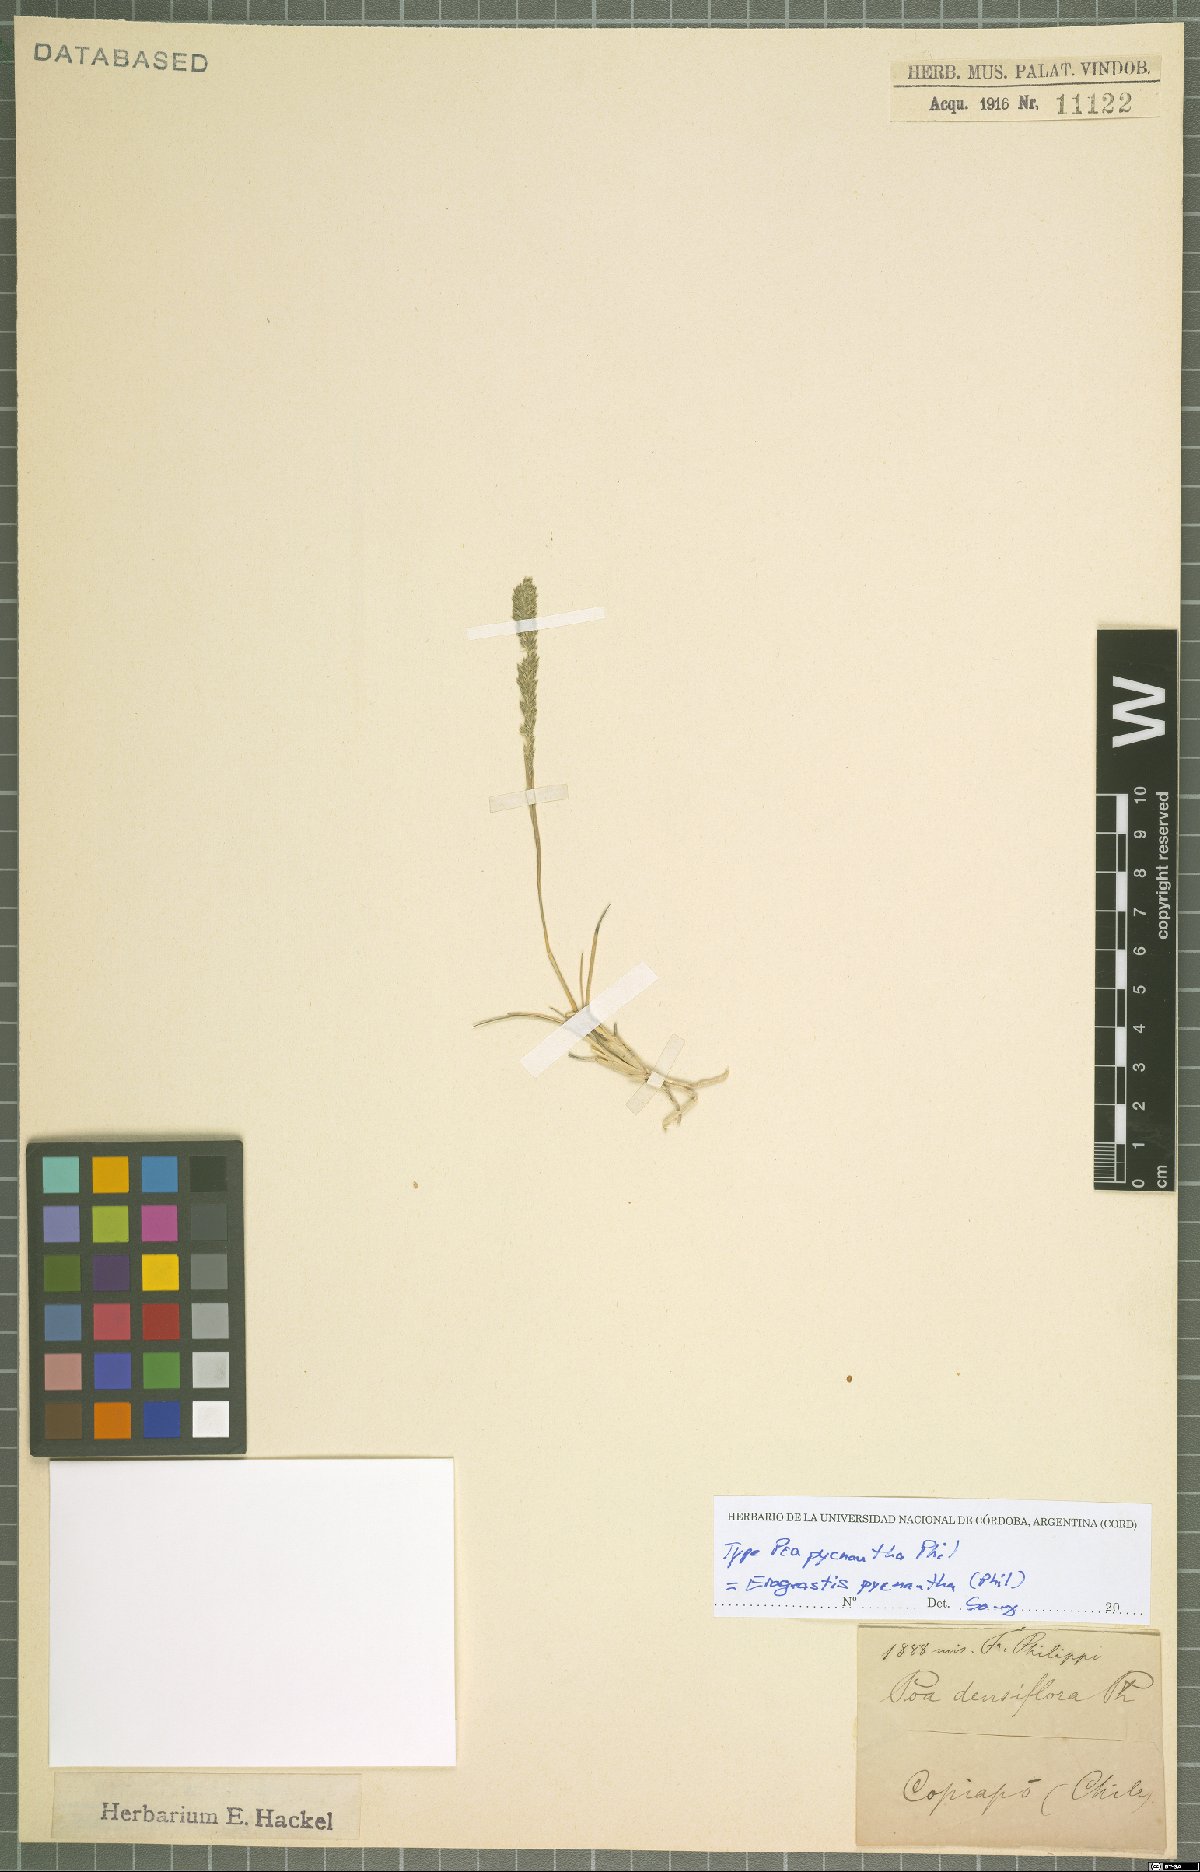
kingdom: Plantae
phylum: Tracheophyta
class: Liliopsida
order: Poales
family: Poaceae
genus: Eragrostis
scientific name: Eragrostis pycnantha
